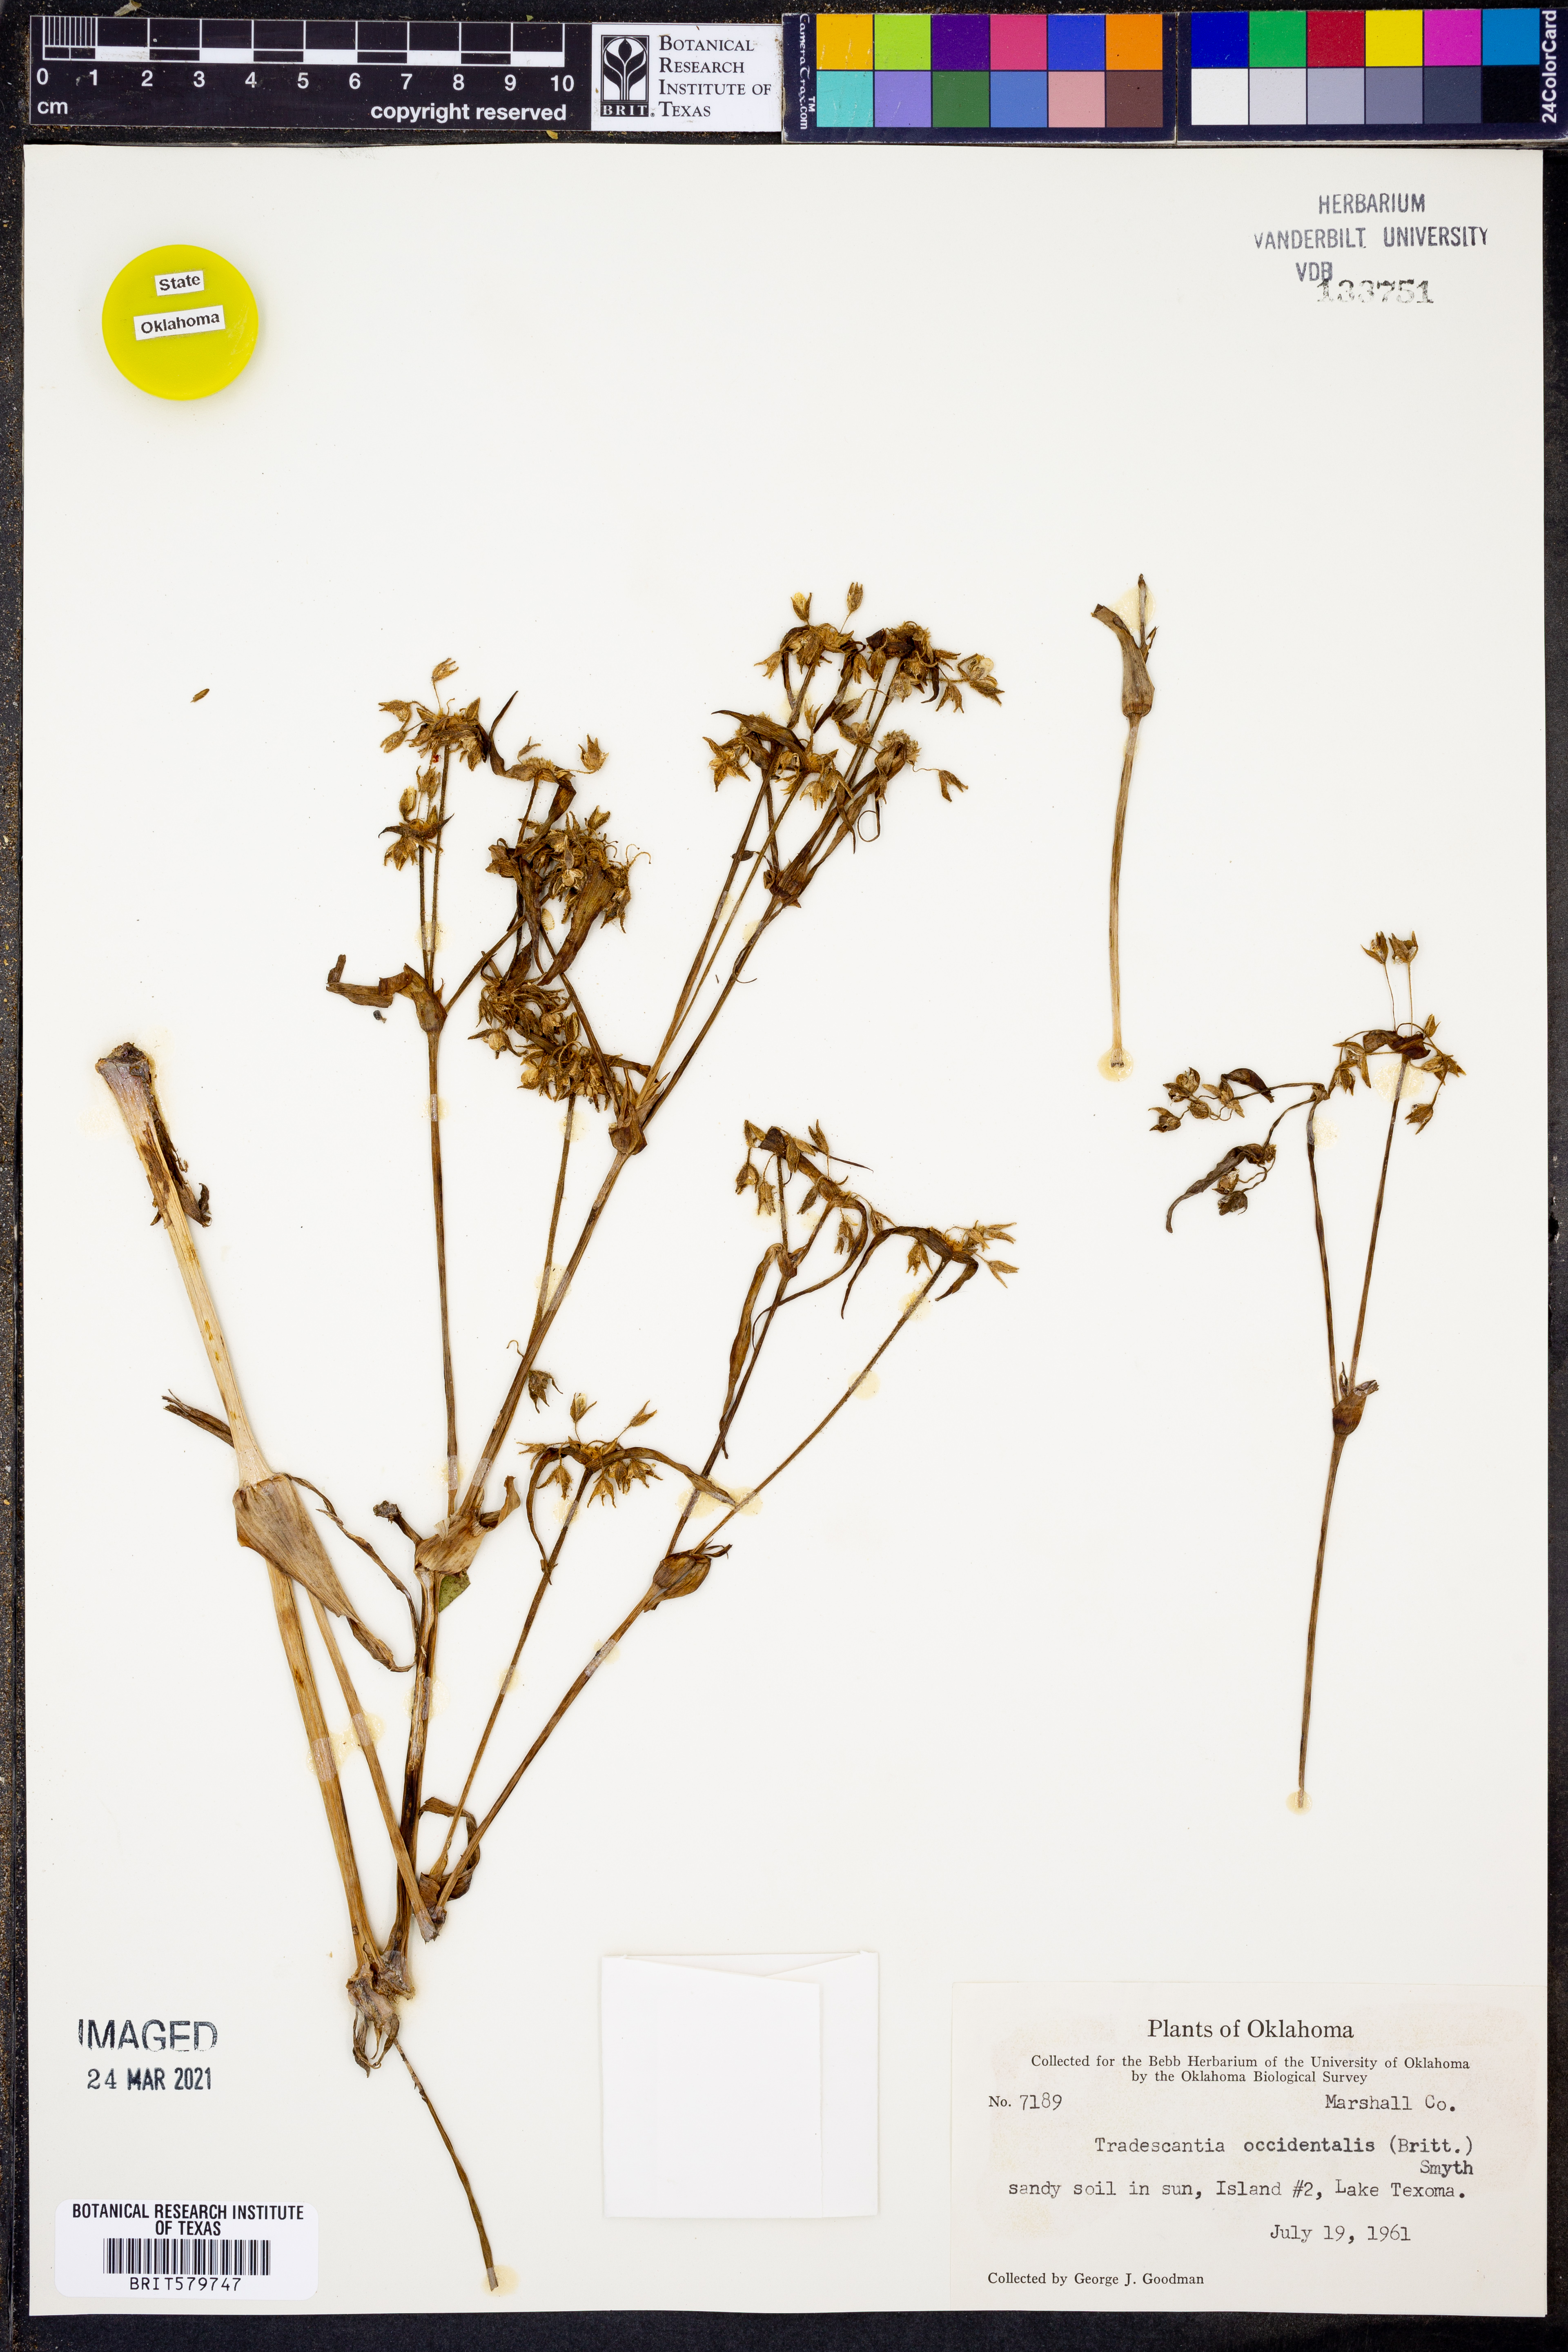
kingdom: Plantae
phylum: Tracheophyta
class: Liliopsida
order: Commelinales
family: Commelinaceae
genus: Tradescantia
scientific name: Tradescantia occidentalis
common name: Prairie spiderwort
